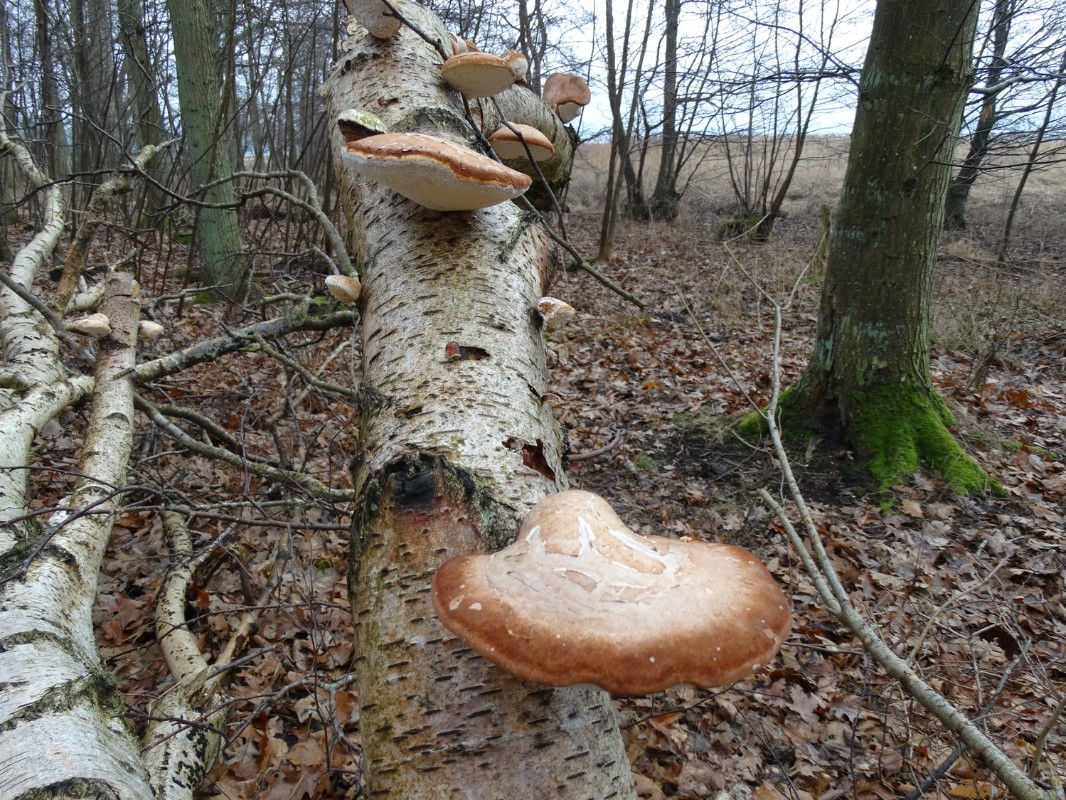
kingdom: Fungi
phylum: Basidiomycota
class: Agaricomycetes
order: Polyporales
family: Fomitopsidaceae
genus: Fomitopsis
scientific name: Fomitopsis betulina
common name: birkeporesvamp
